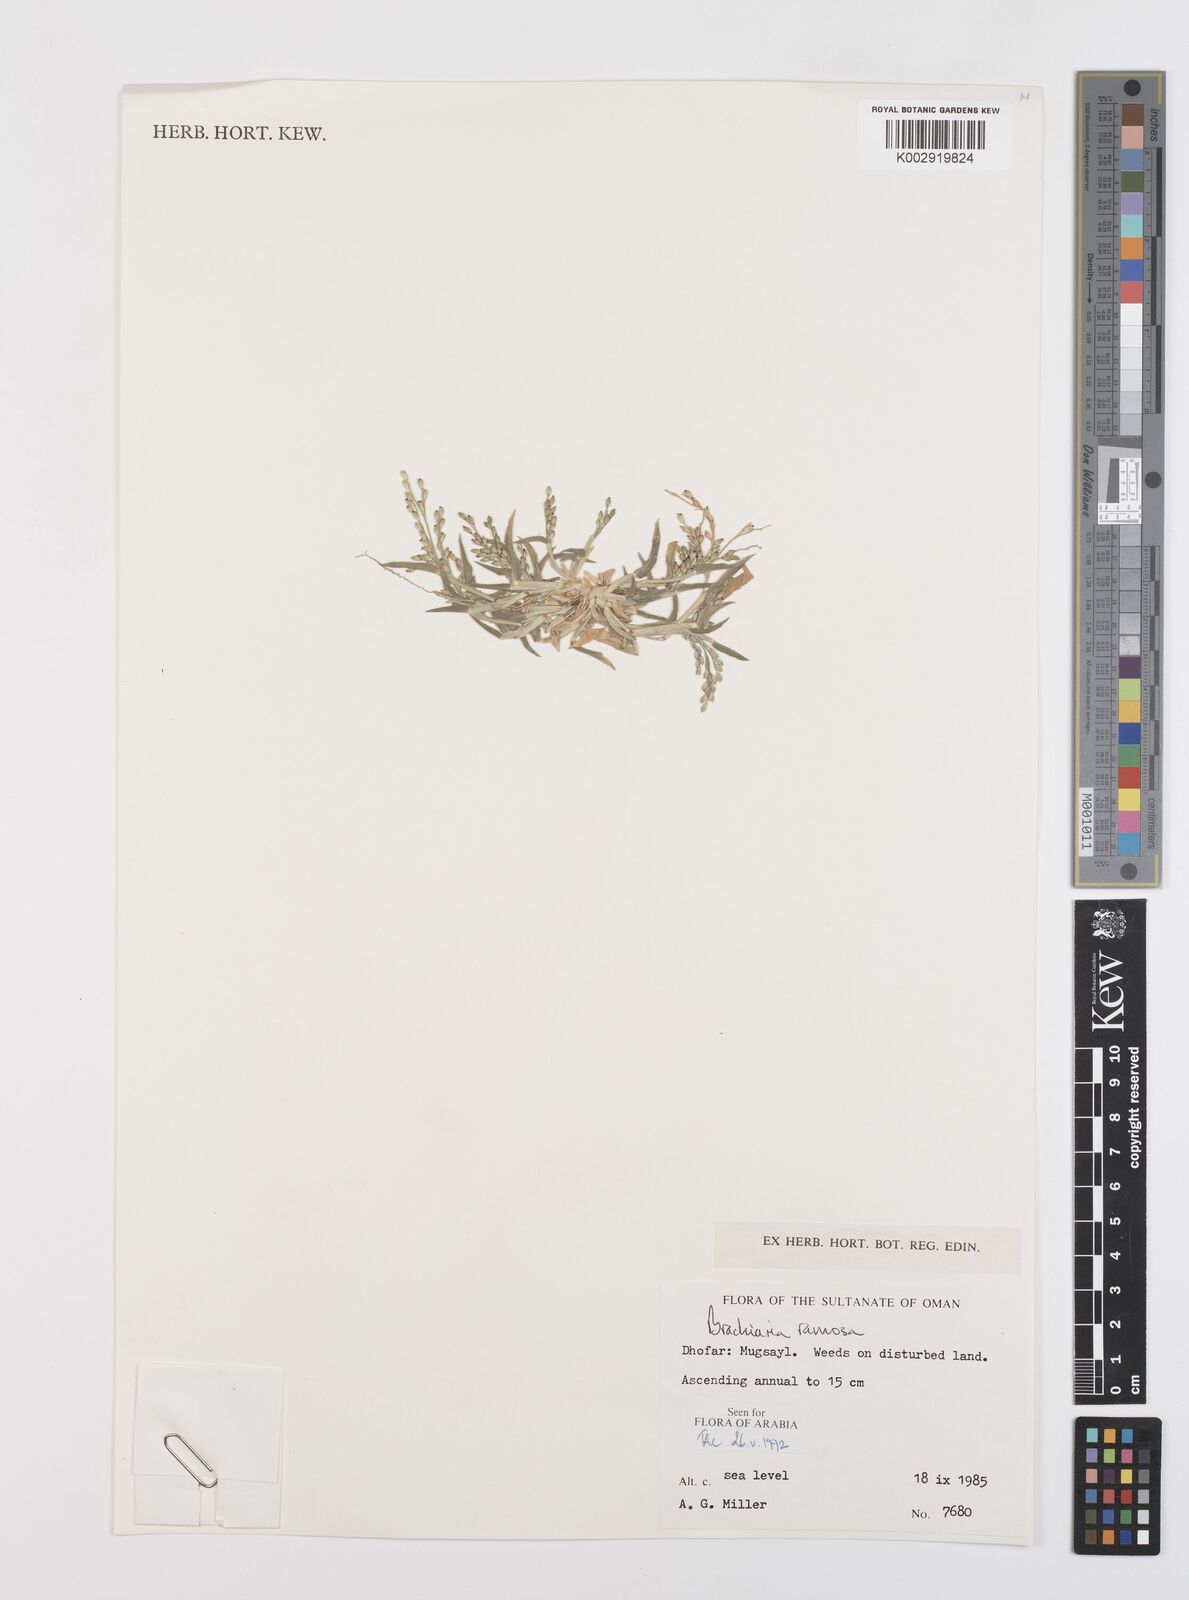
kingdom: Plantae
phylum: Tracheophyta
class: Liliopsida
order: Poales
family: Poaceae
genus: Urochloa
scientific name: Urochloa ramosa
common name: Browntop millet
